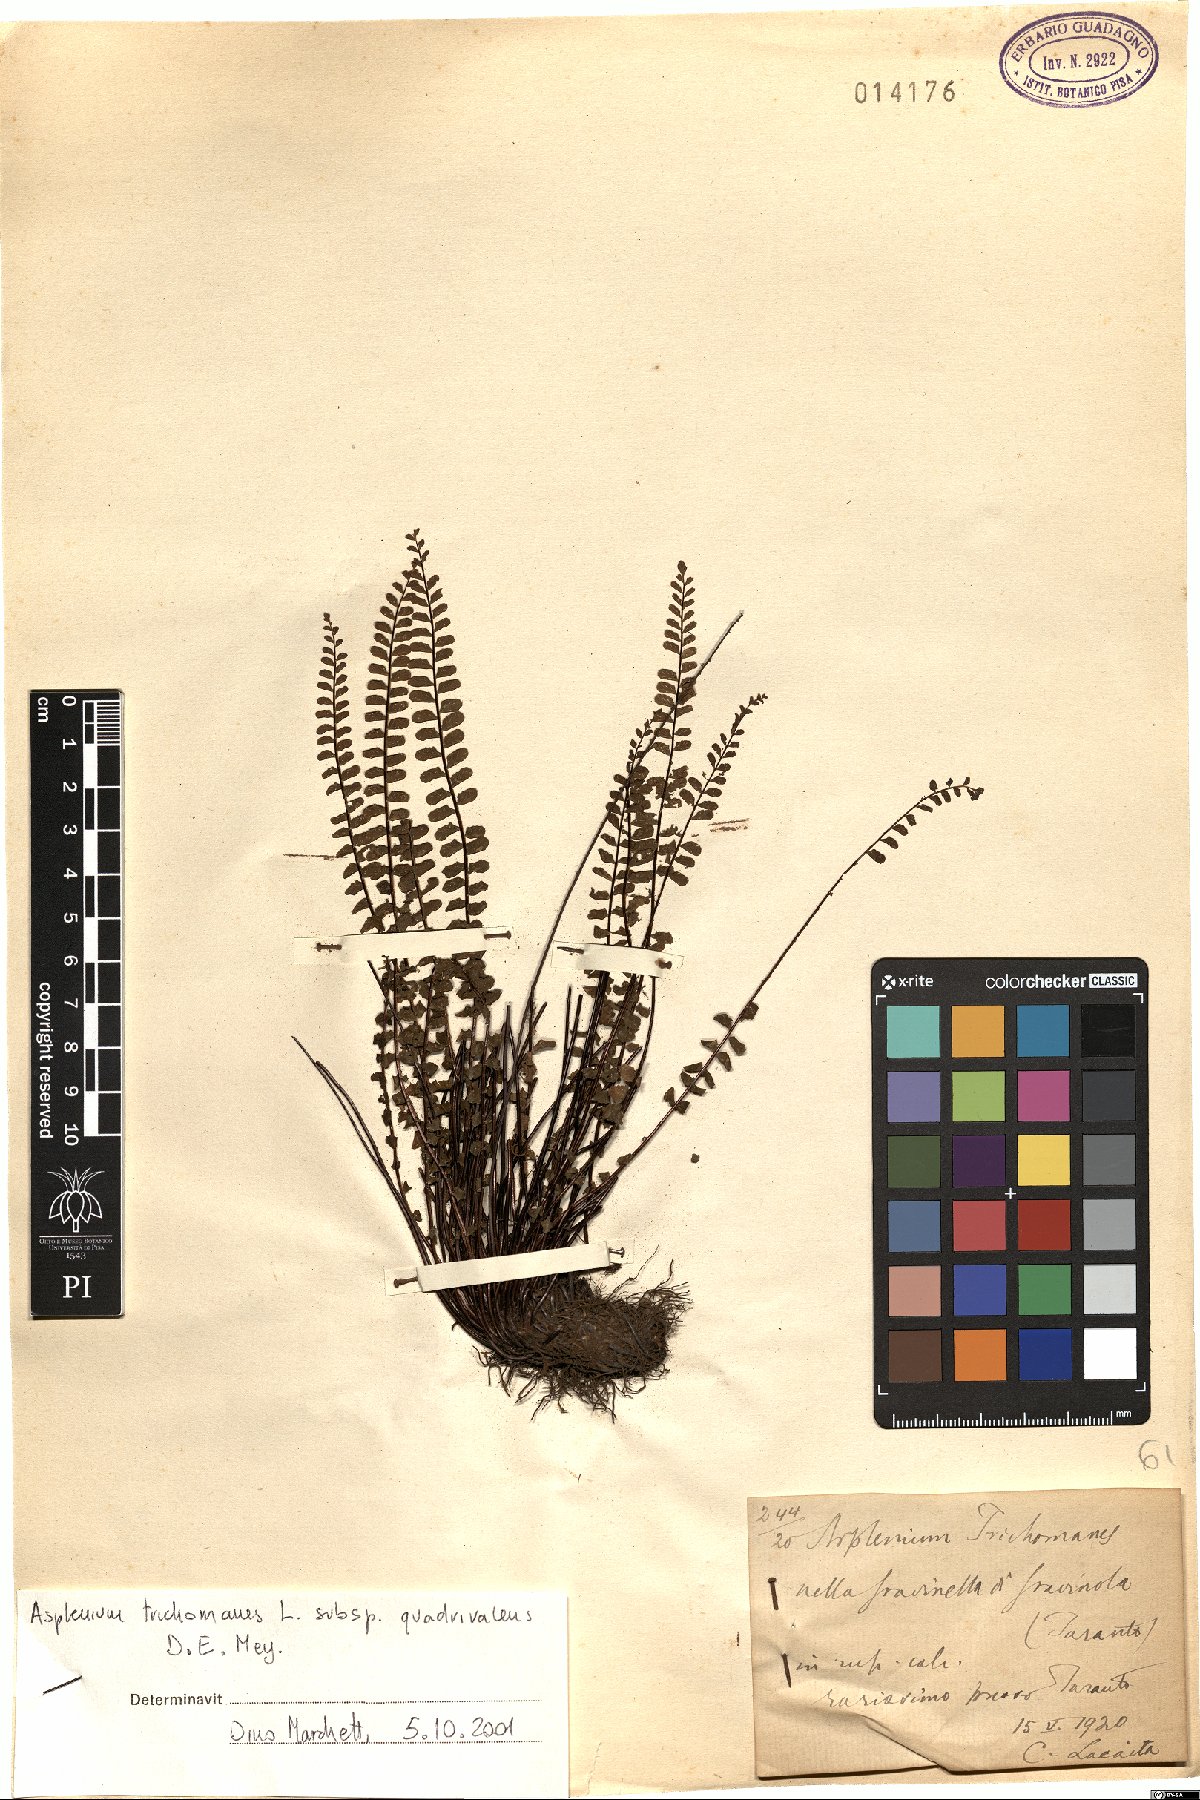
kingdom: Plantae
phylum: Tracheophyta
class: Polypodiopsida
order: Polypodiales
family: Aspleniaceae
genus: Asplenium
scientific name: Asplenium quadrivalens
